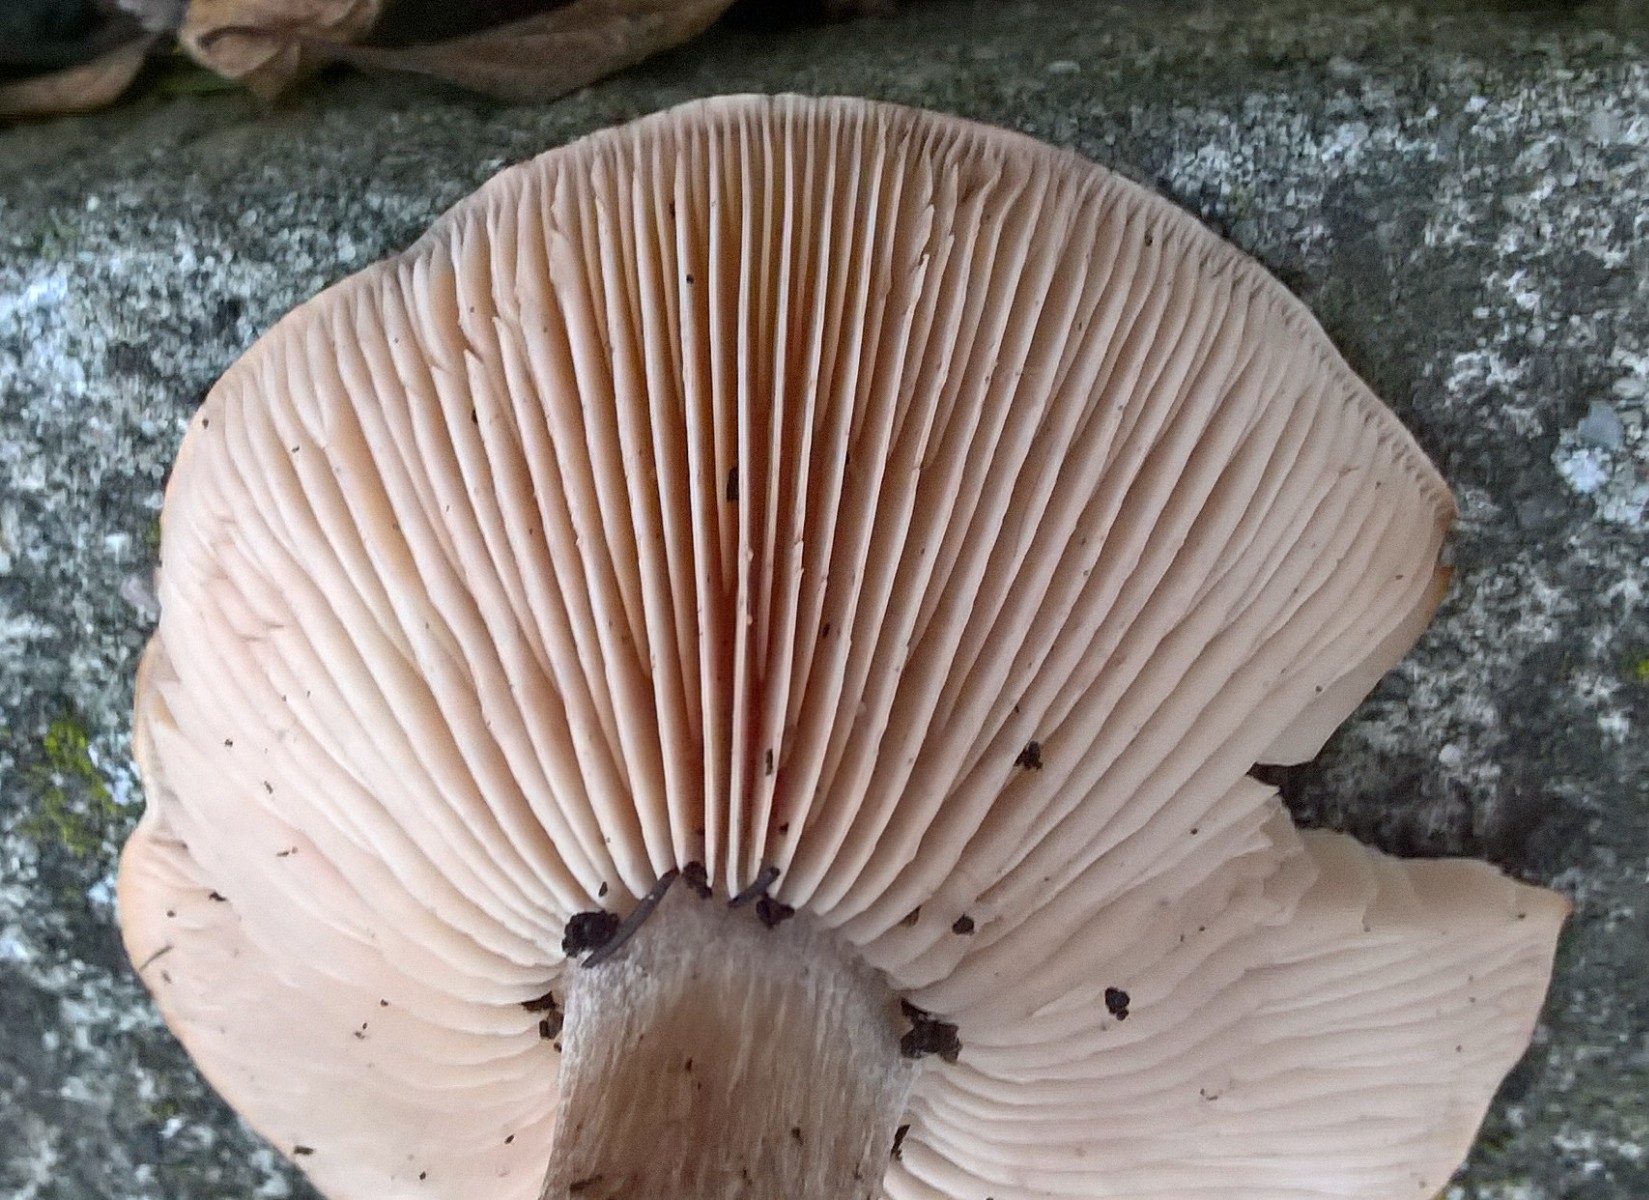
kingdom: Fungi
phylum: Basidiomycota
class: Agaricomycetes
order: Agaricales
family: Tricholomataceae
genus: Lepista
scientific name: Lepista personata
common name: bleg hekseringshat
